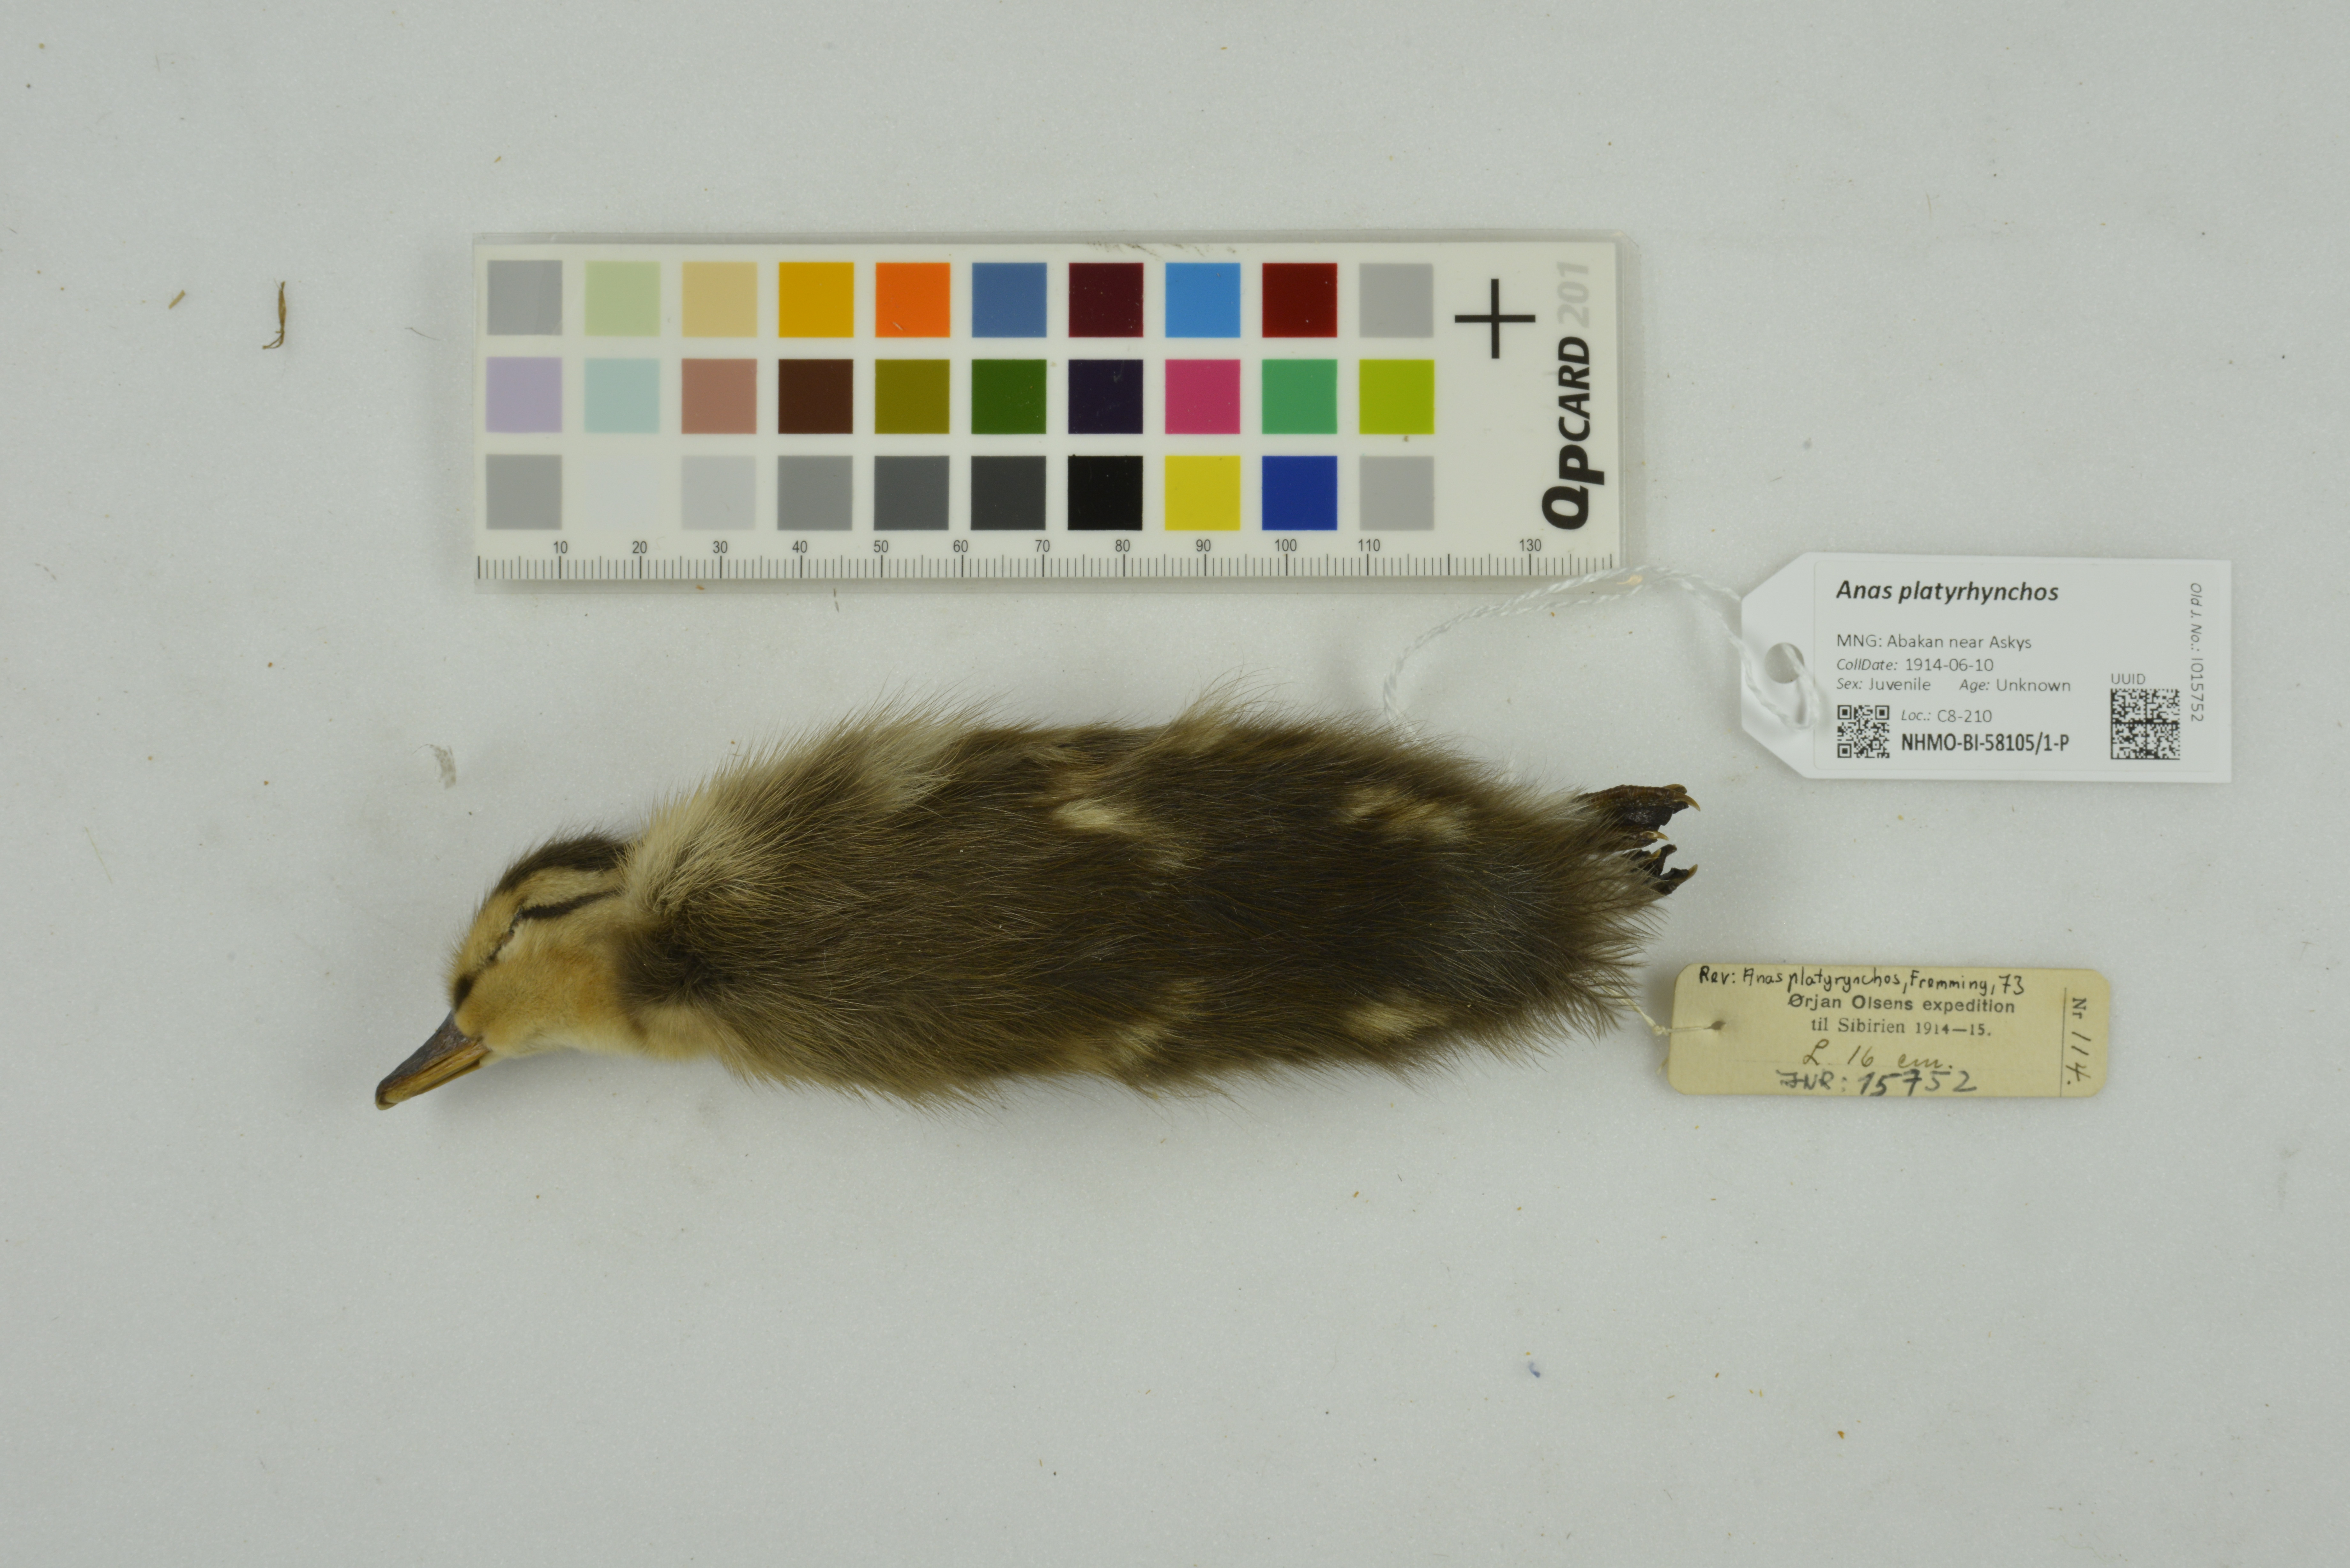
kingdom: Animalia
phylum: Chordata
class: Aves
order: Anseriformes
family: Anatidae
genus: Anas
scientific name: Anas platyrhynchos
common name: Mallard
